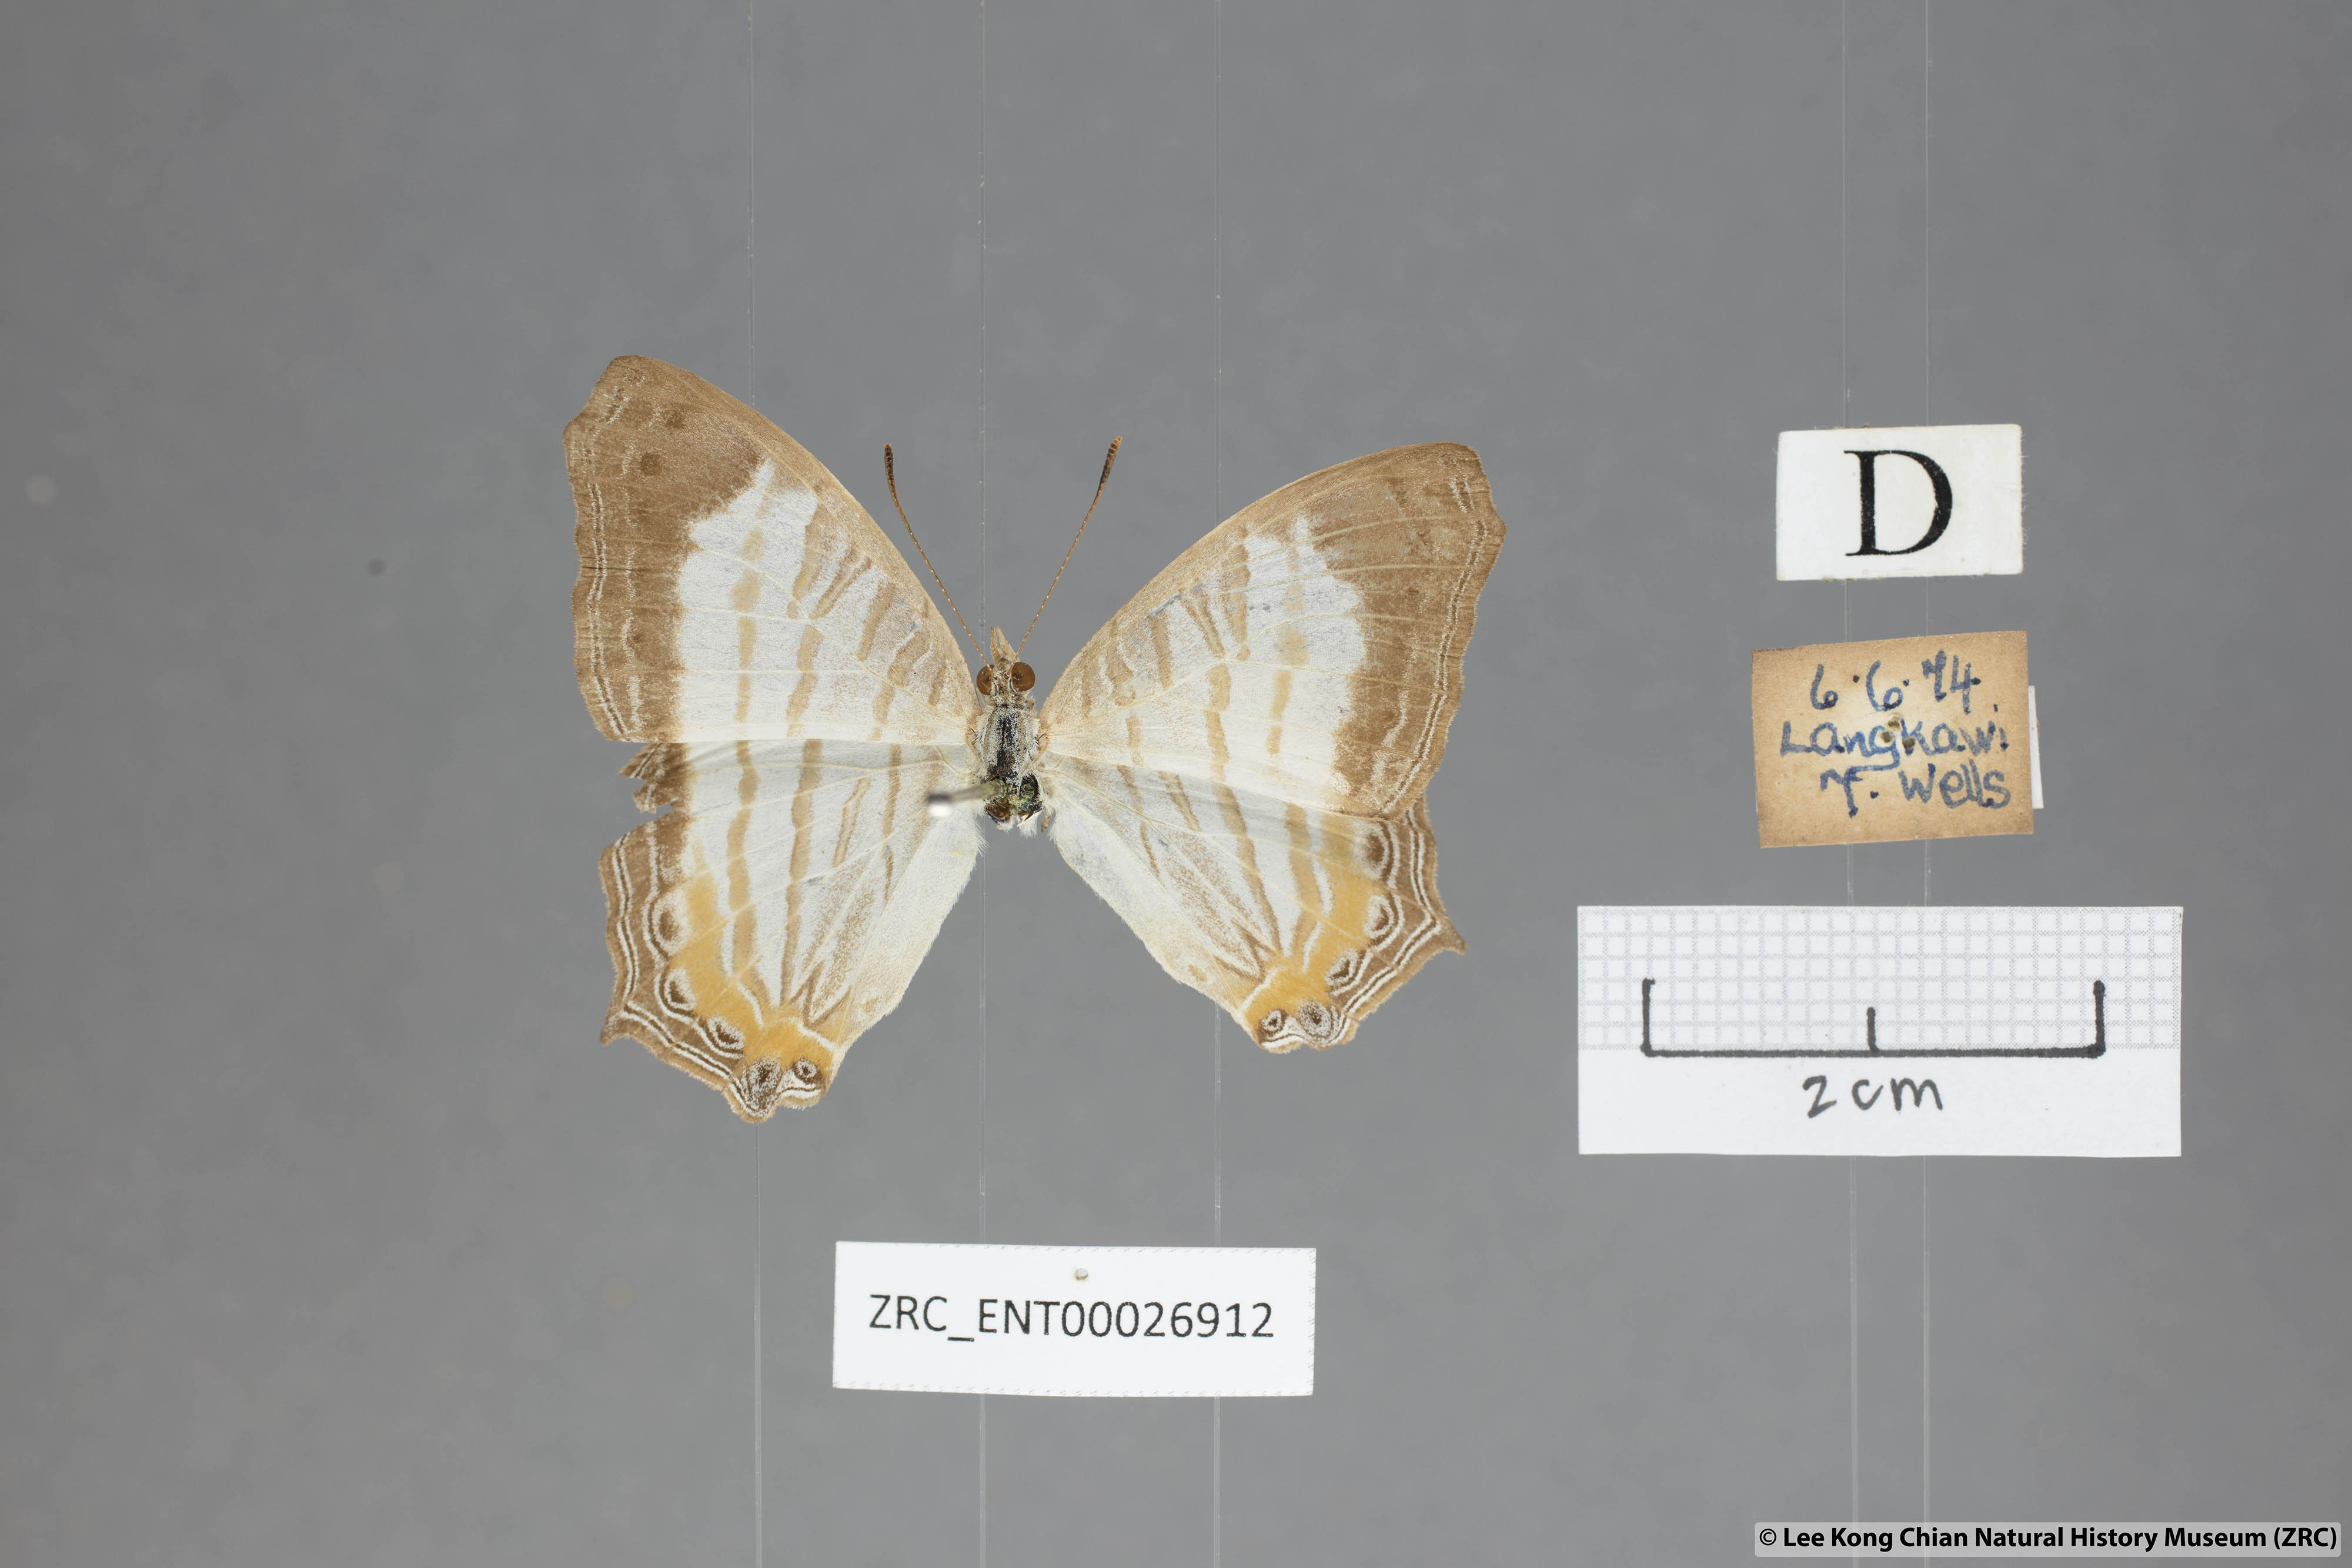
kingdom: Animalia
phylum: Arthropoda
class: Insecta
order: Lepidoptera
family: Nymphalidae
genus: Cyrestis
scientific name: Cyrestis themire
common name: Little mapwing
